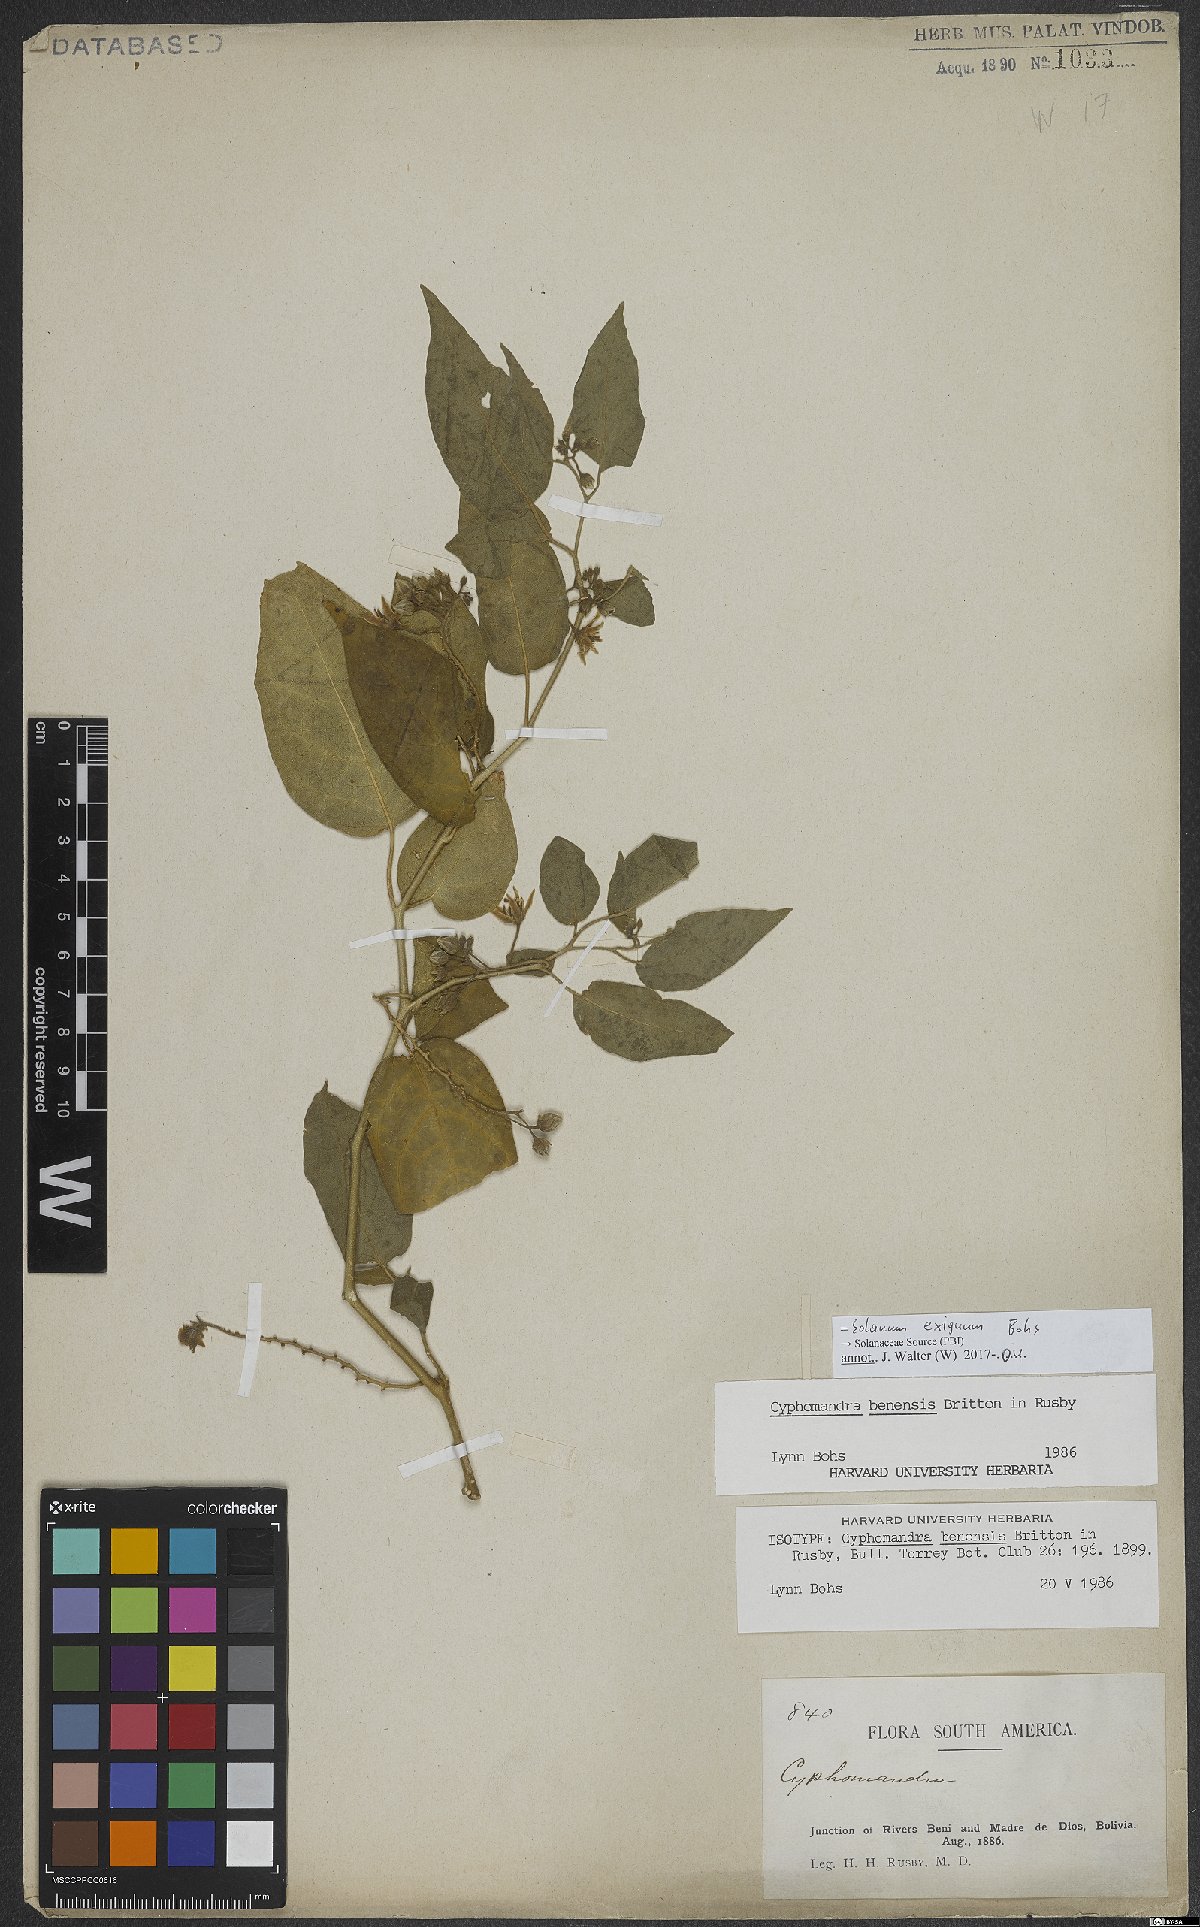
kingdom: Plantae
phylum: Tracheophyta
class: Magnoliopsida
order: Solanales
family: Solanaceae
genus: Solanum
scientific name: Solanum exiguum
